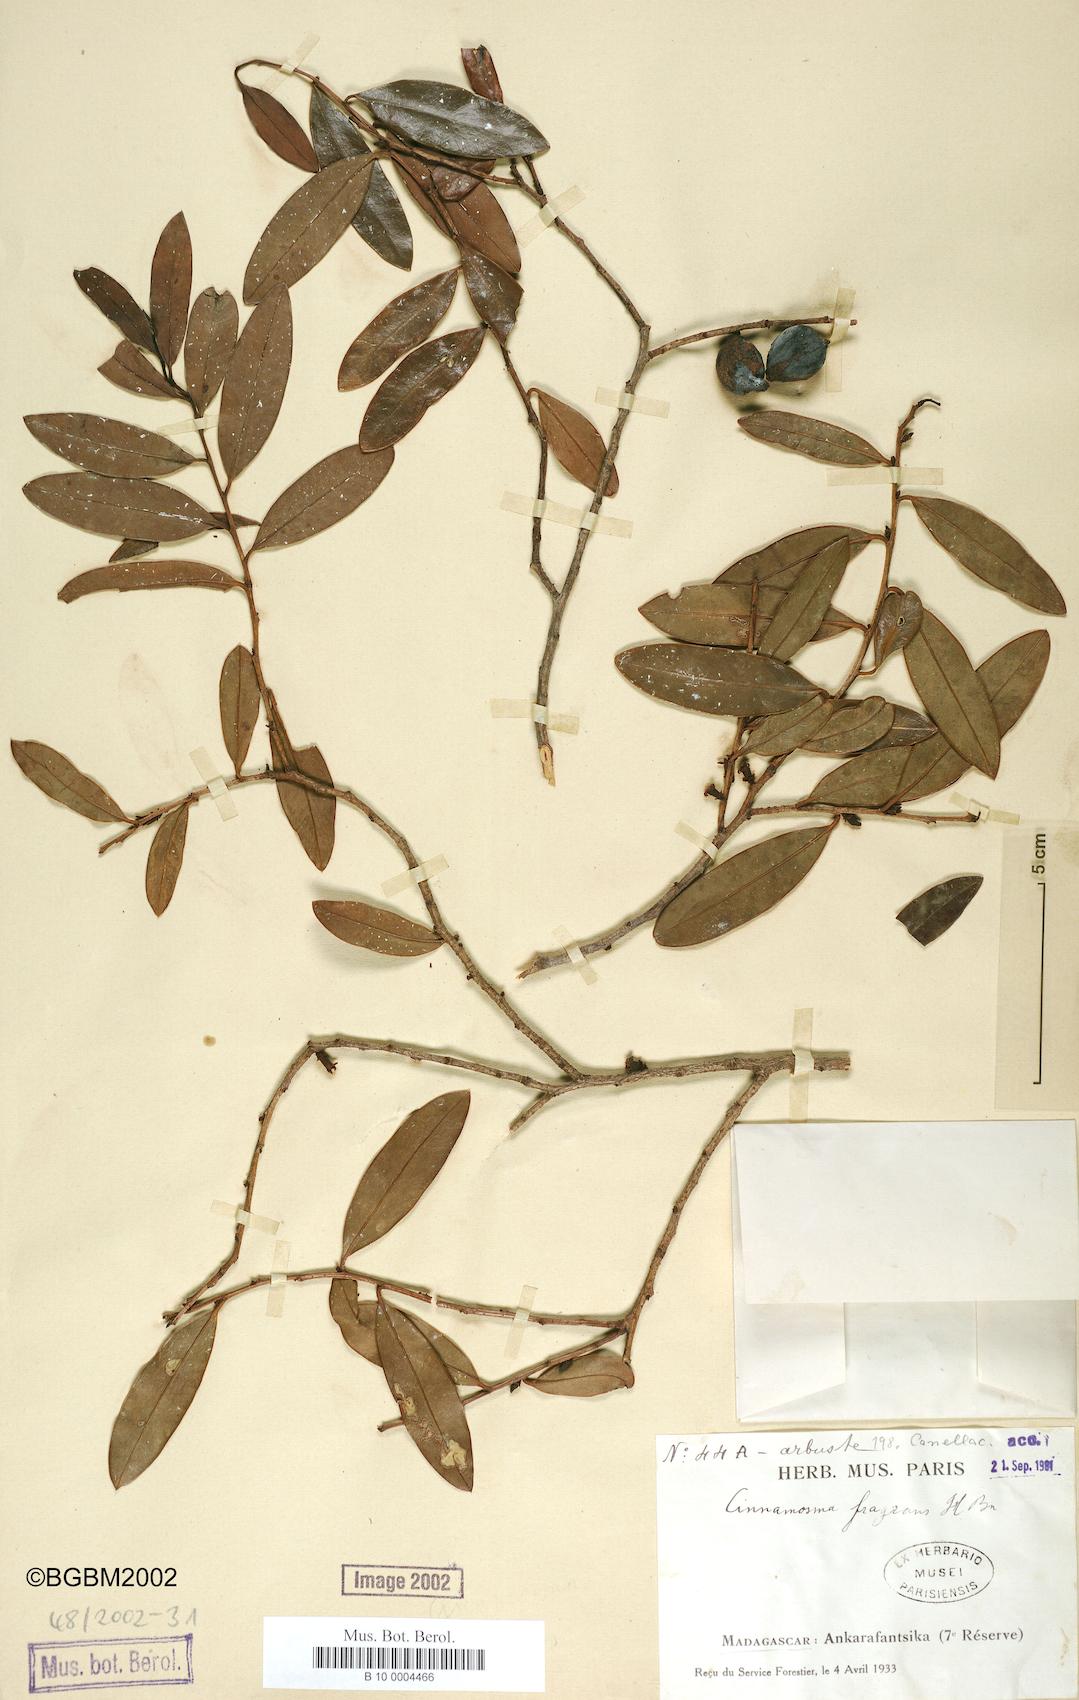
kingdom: Plantae
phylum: Tracheophyta
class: Magnoliopsida
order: Canellales
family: Canellaceae
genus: Cinnamosma
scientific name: Cinnamosma fragrans
